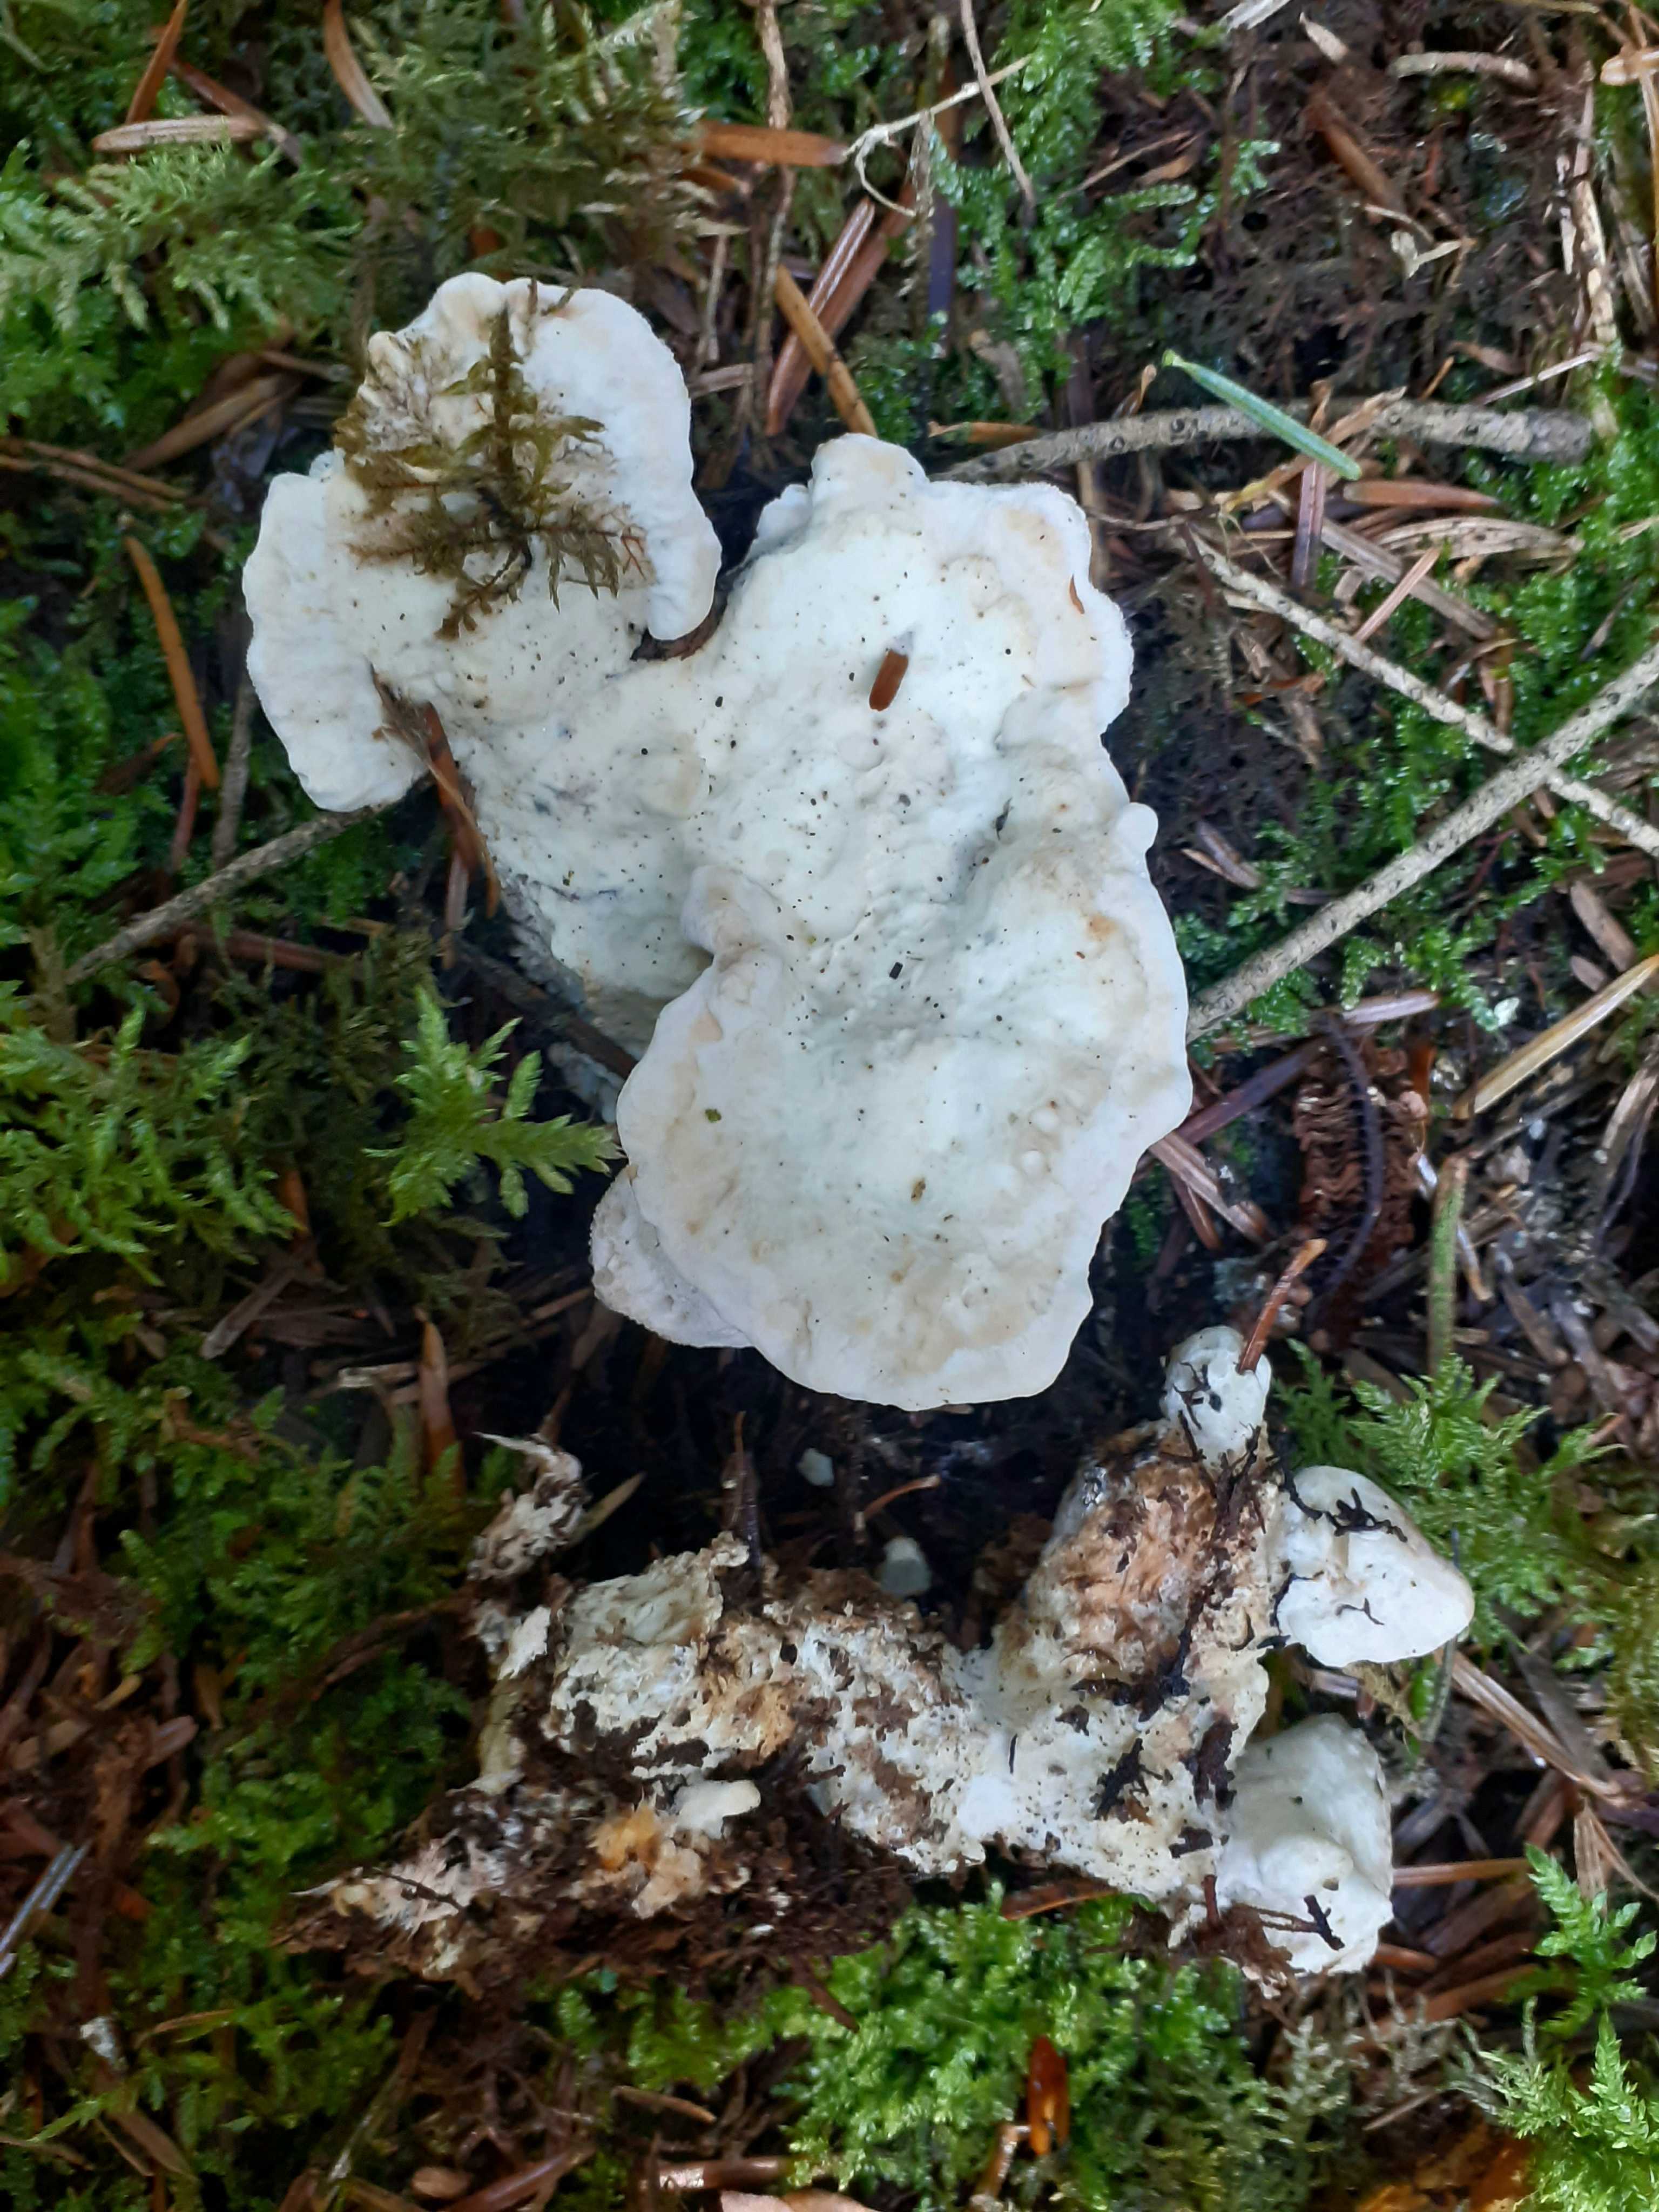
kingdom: Fungi
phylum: Basidiomycota
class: Agaricomycetes
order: Polyporales
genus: Calcipostia
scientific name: Calcipostia guttulata
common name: dråbe-kødporesvamp
